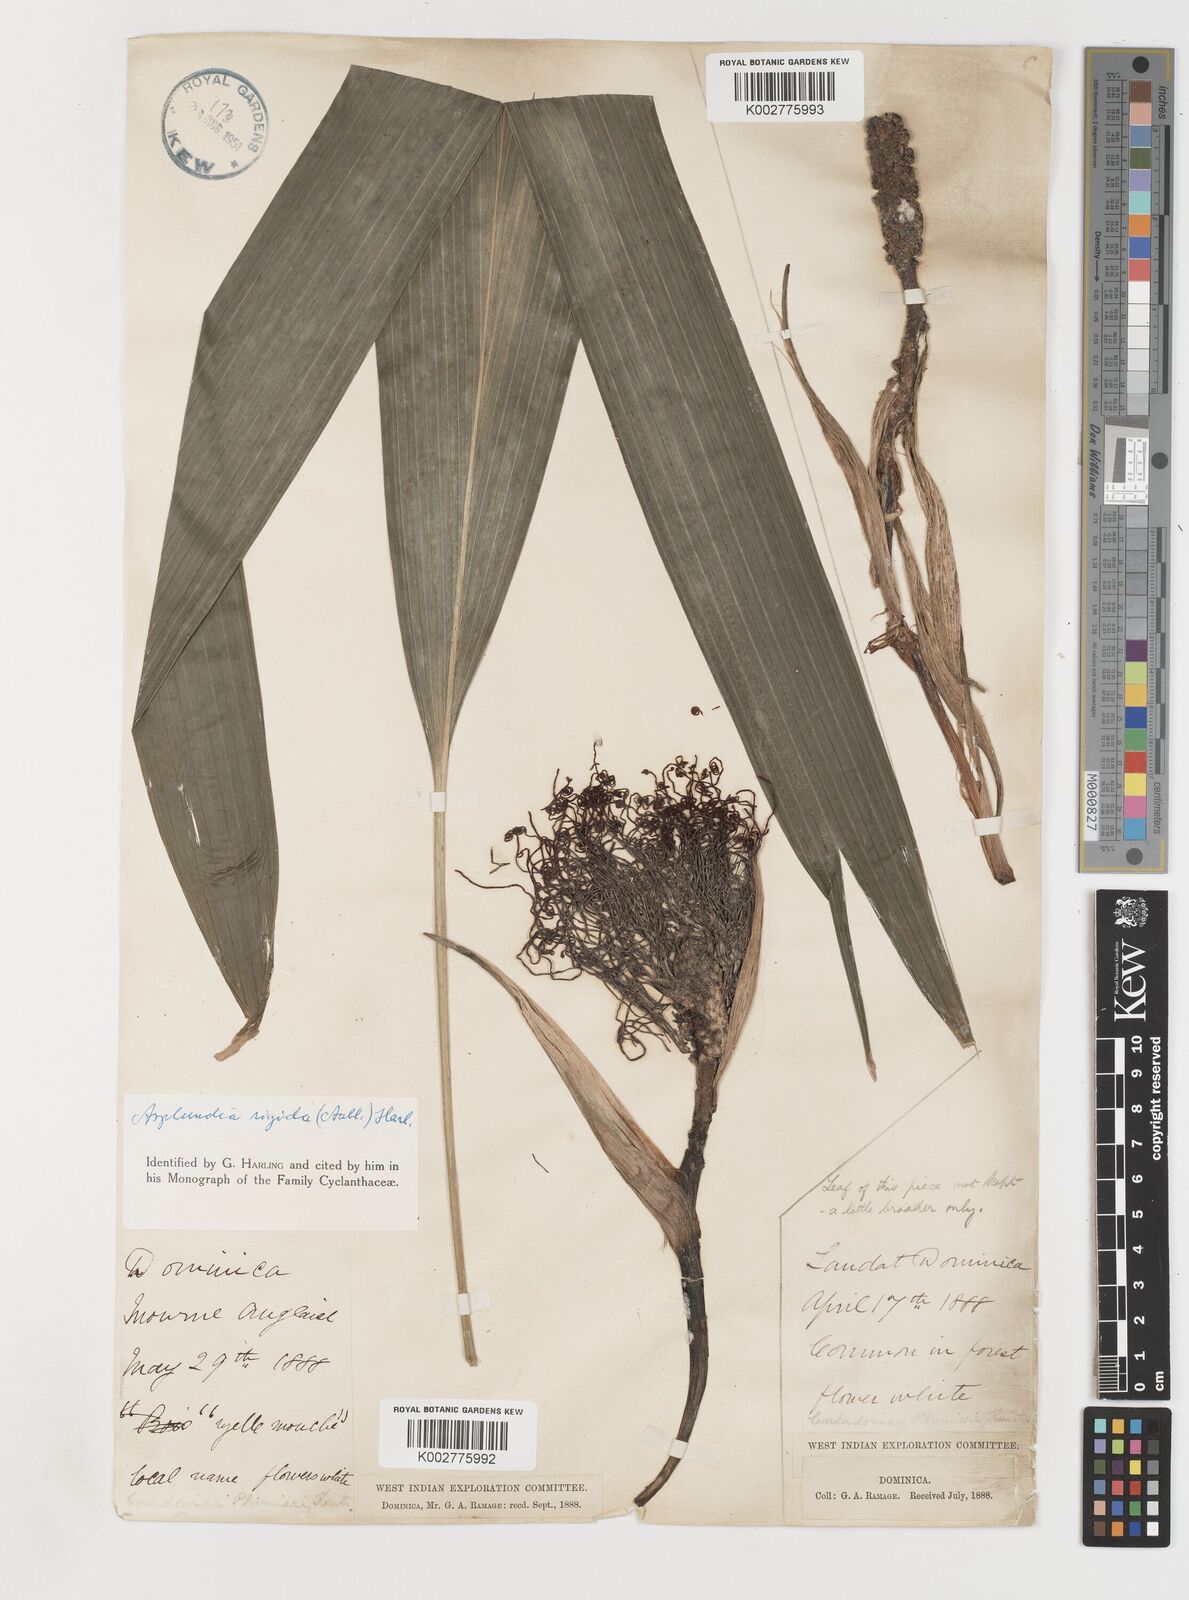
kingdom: Plantae
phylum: Tracheophyta
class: Liliopsida
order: Pandanales
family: Cyclanthaceae
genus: Asplundia
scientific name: Asplundia rigida
